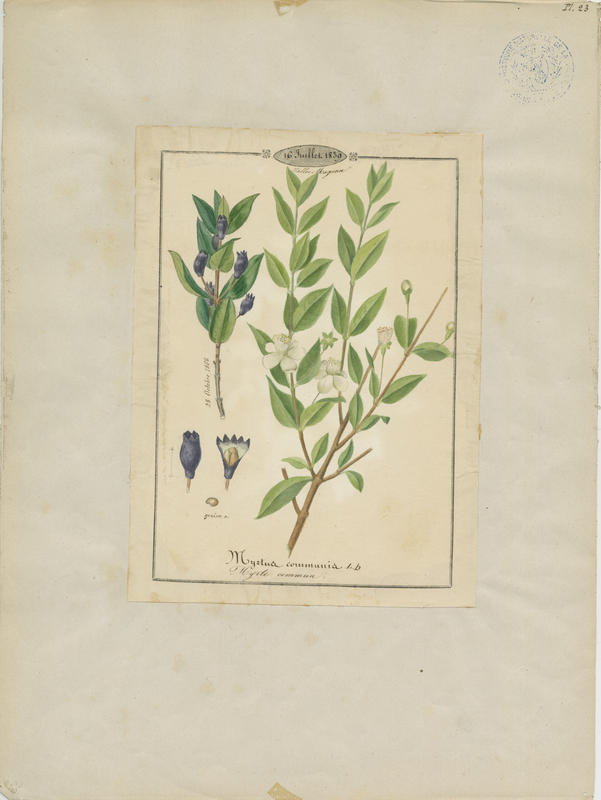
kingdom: Plantae
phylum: Tracheophyta
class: Magnoliopsida
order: Myrtales
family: Myrtaceae
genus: Myrtus
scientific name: Myrtus communis
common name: Myrtle
